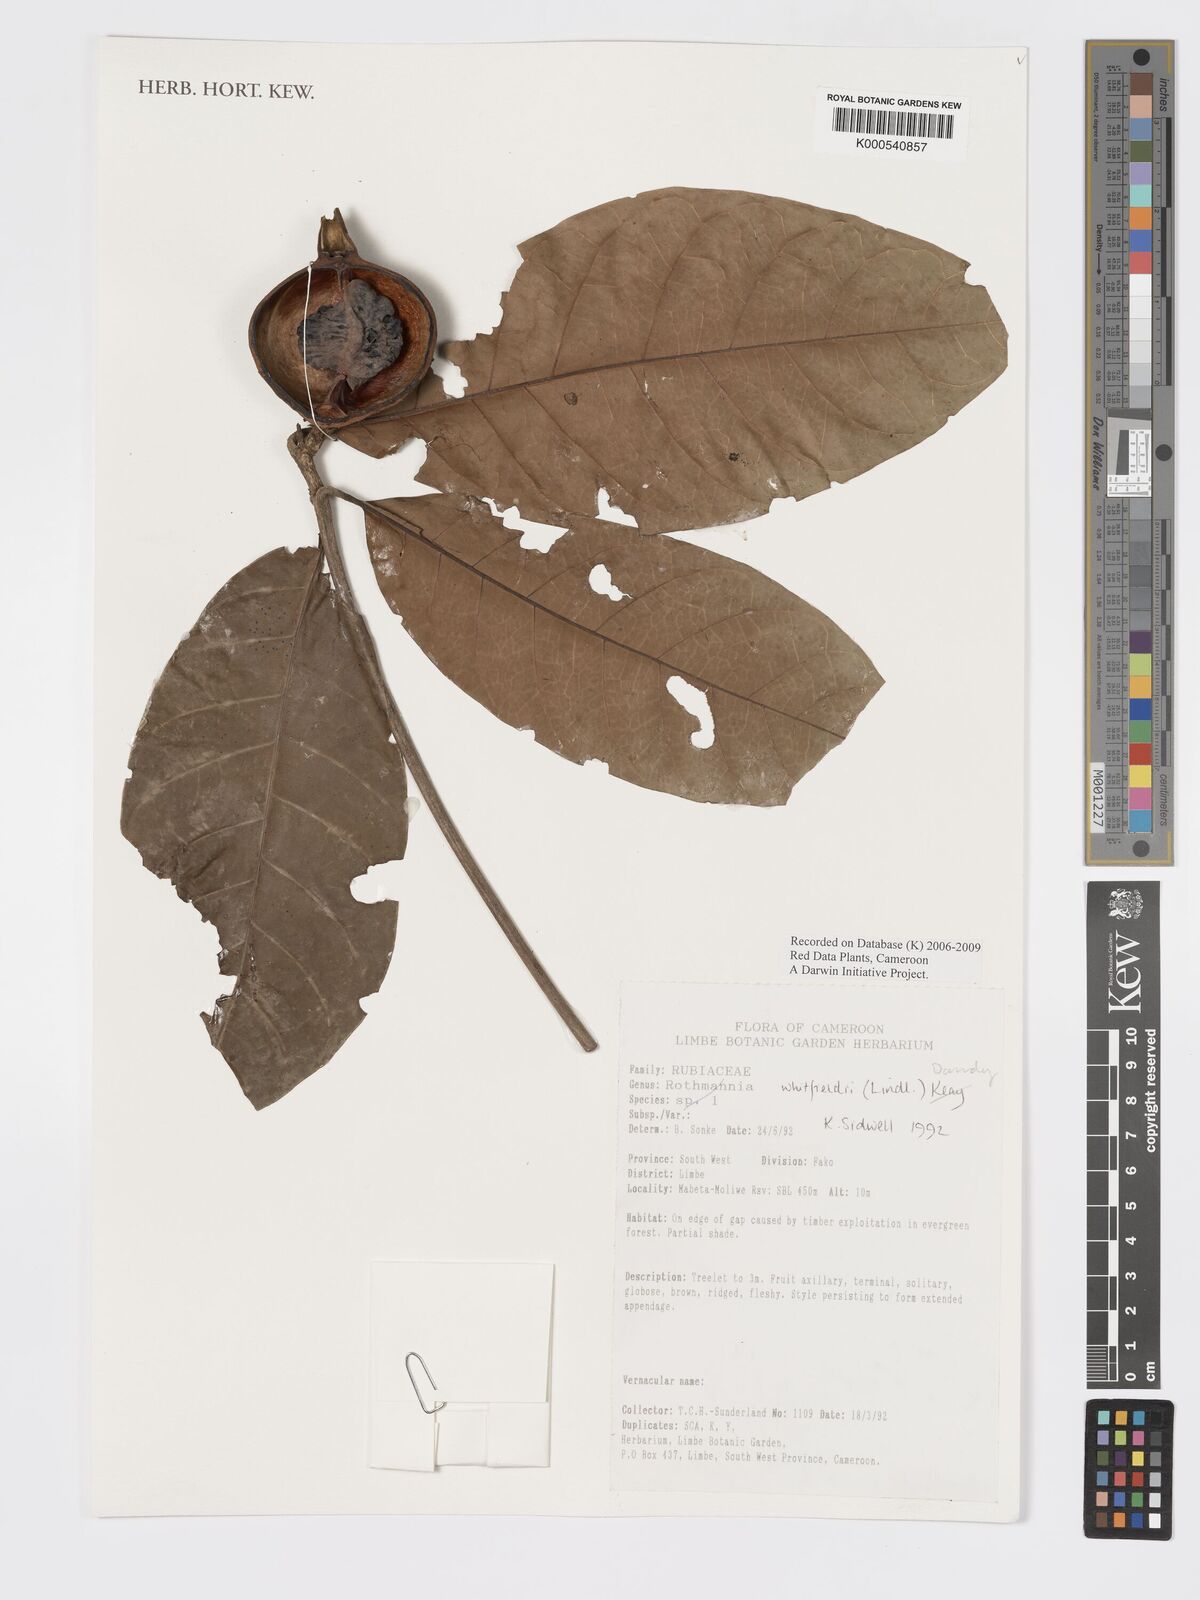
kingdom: Plantae
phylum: Tracheophyta
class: Magnoliopsida
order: Gentianales
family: Rubiaceae
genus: Rothmannia
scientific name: Rothmannia whitfieldii
